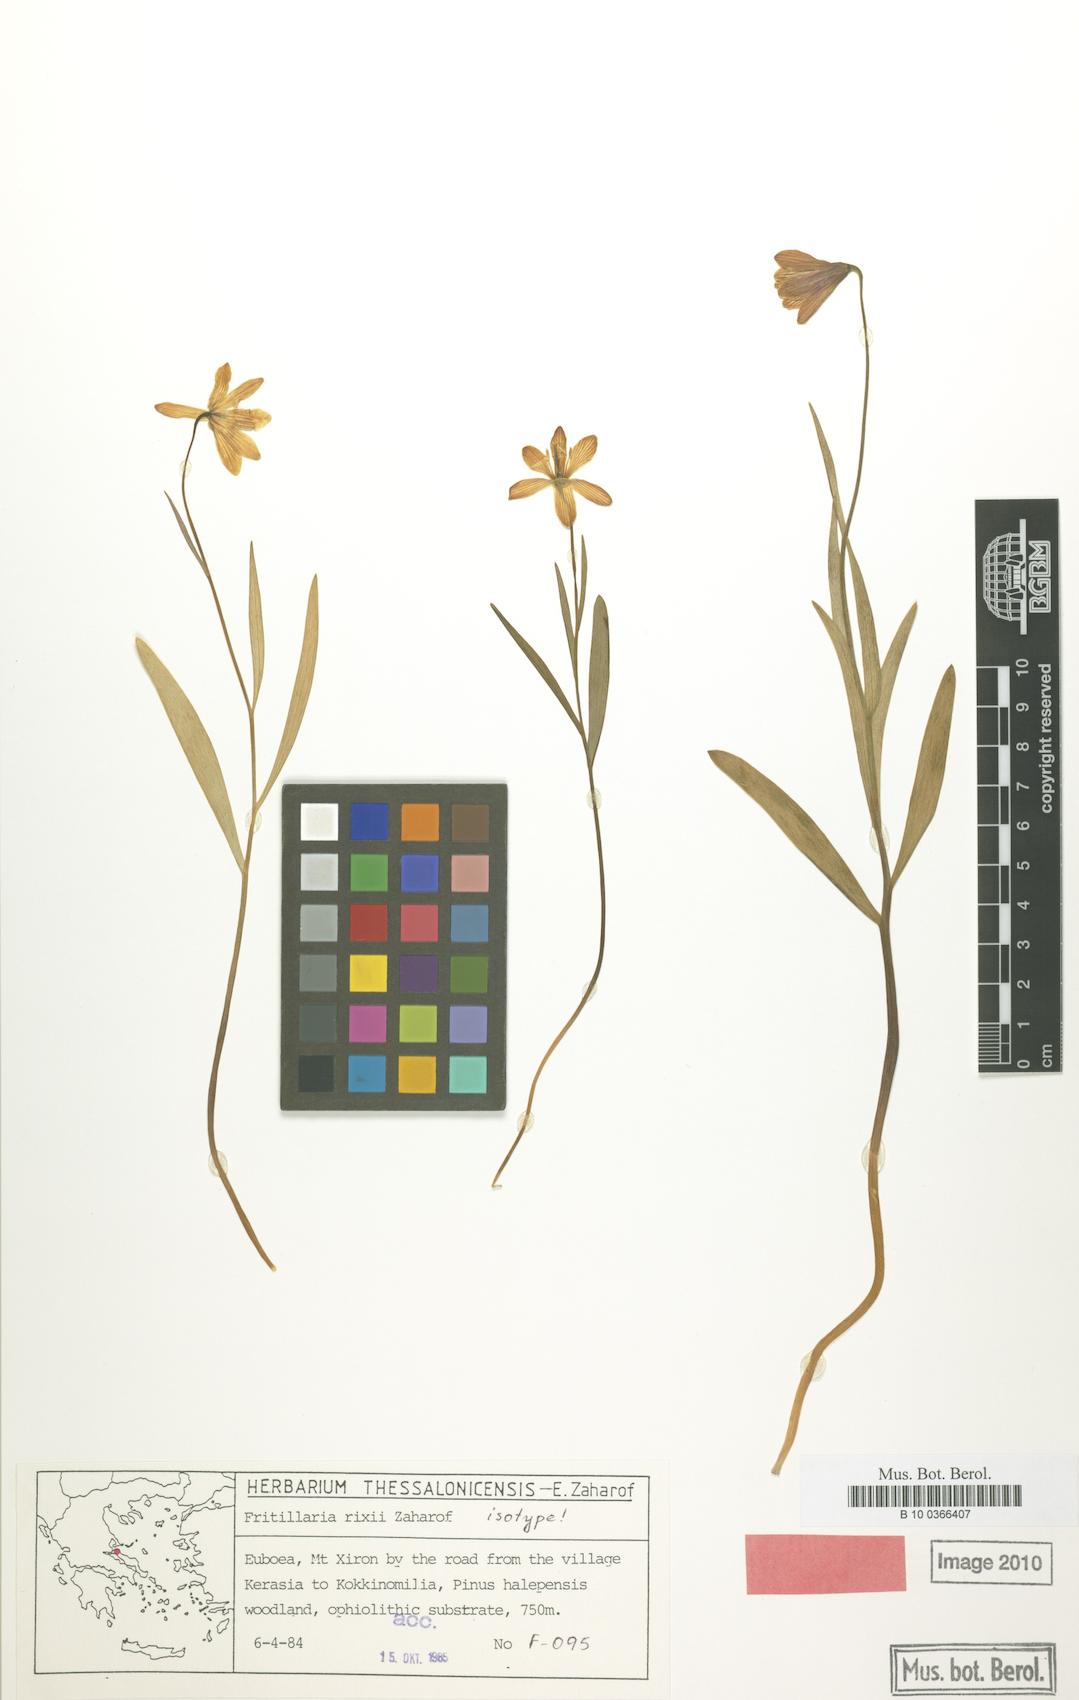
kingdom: Plantae
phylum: Tracheophyta
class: Liliopsida
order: Liliales
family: Liliaceae
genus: Fritillaria
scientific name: Fritillaria euboeica
